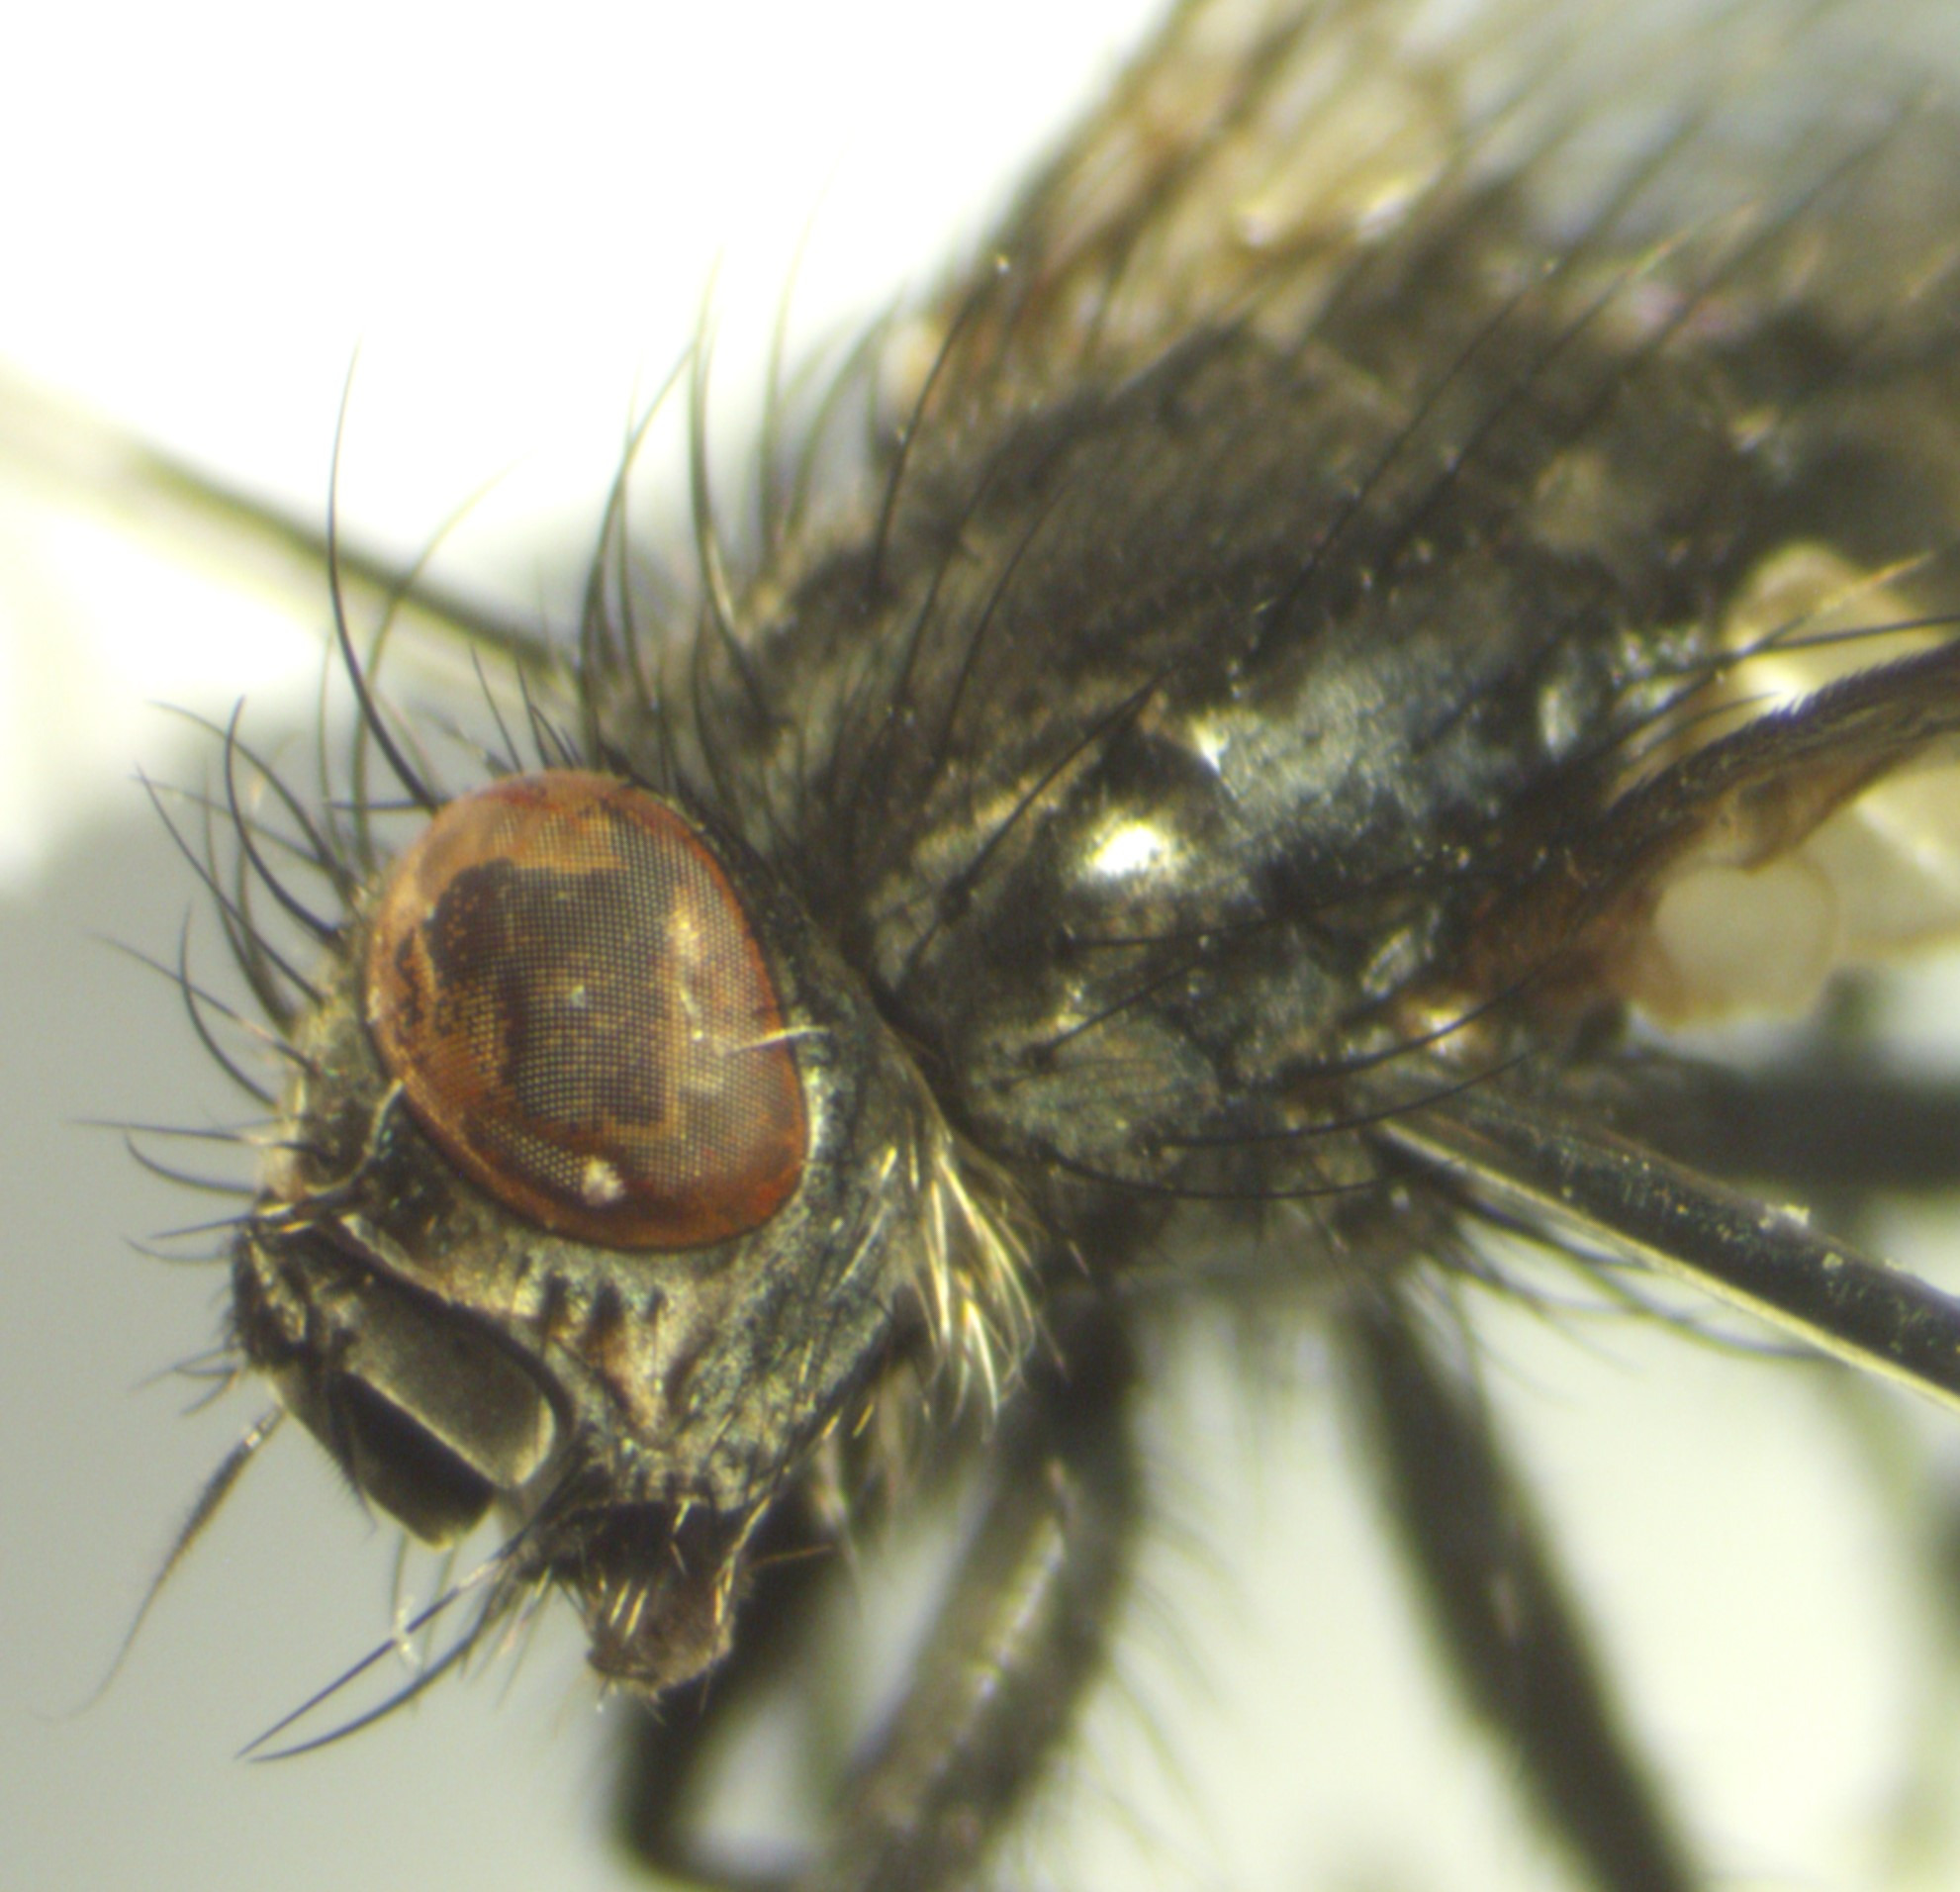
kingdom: Animalia
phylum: Arthropoda
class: Insecta
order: Diptera
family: Sarcophagidae
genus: Sarcophaga
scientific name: Sarcophaga nigriventris
